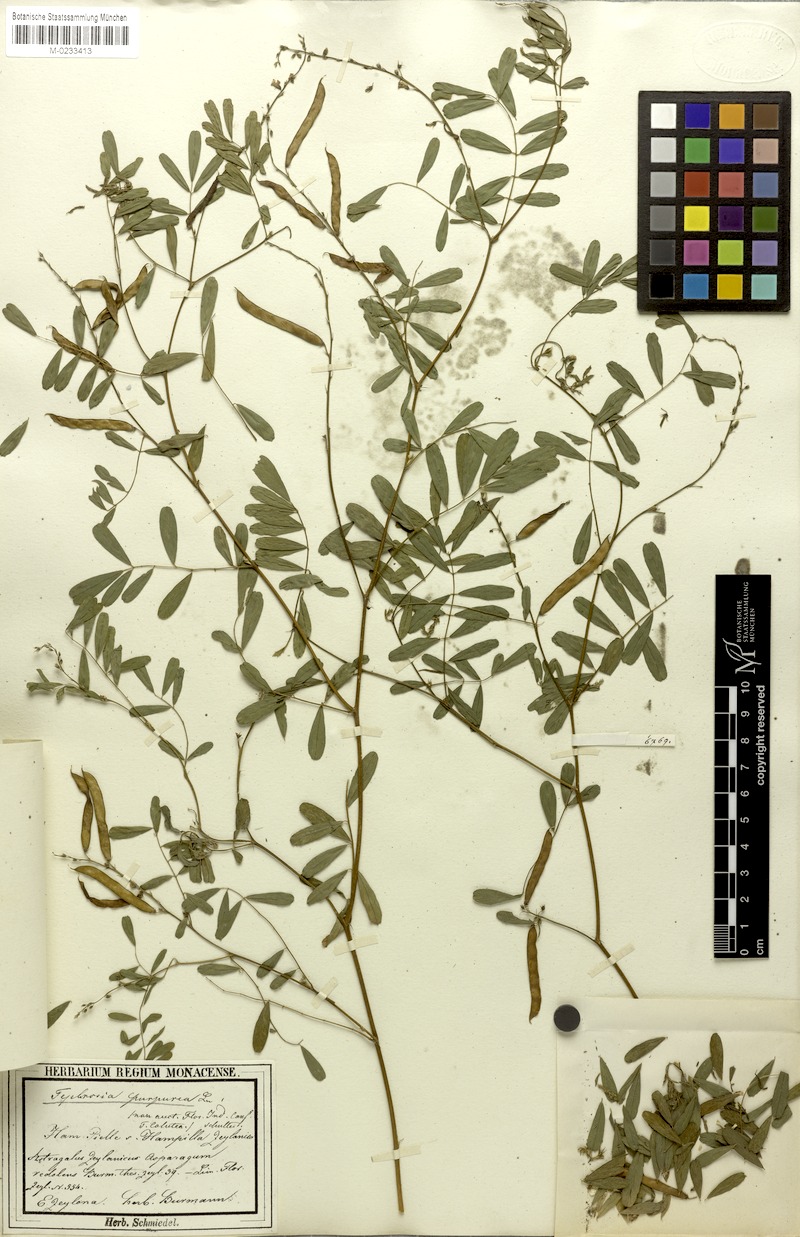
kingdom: Plantae
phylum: Tracheophyta
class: Magnoliopsida
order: Fabales
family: Fabaceae
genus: Tephrosia
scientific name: Tephrosia purpurea
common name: Fishpoison
